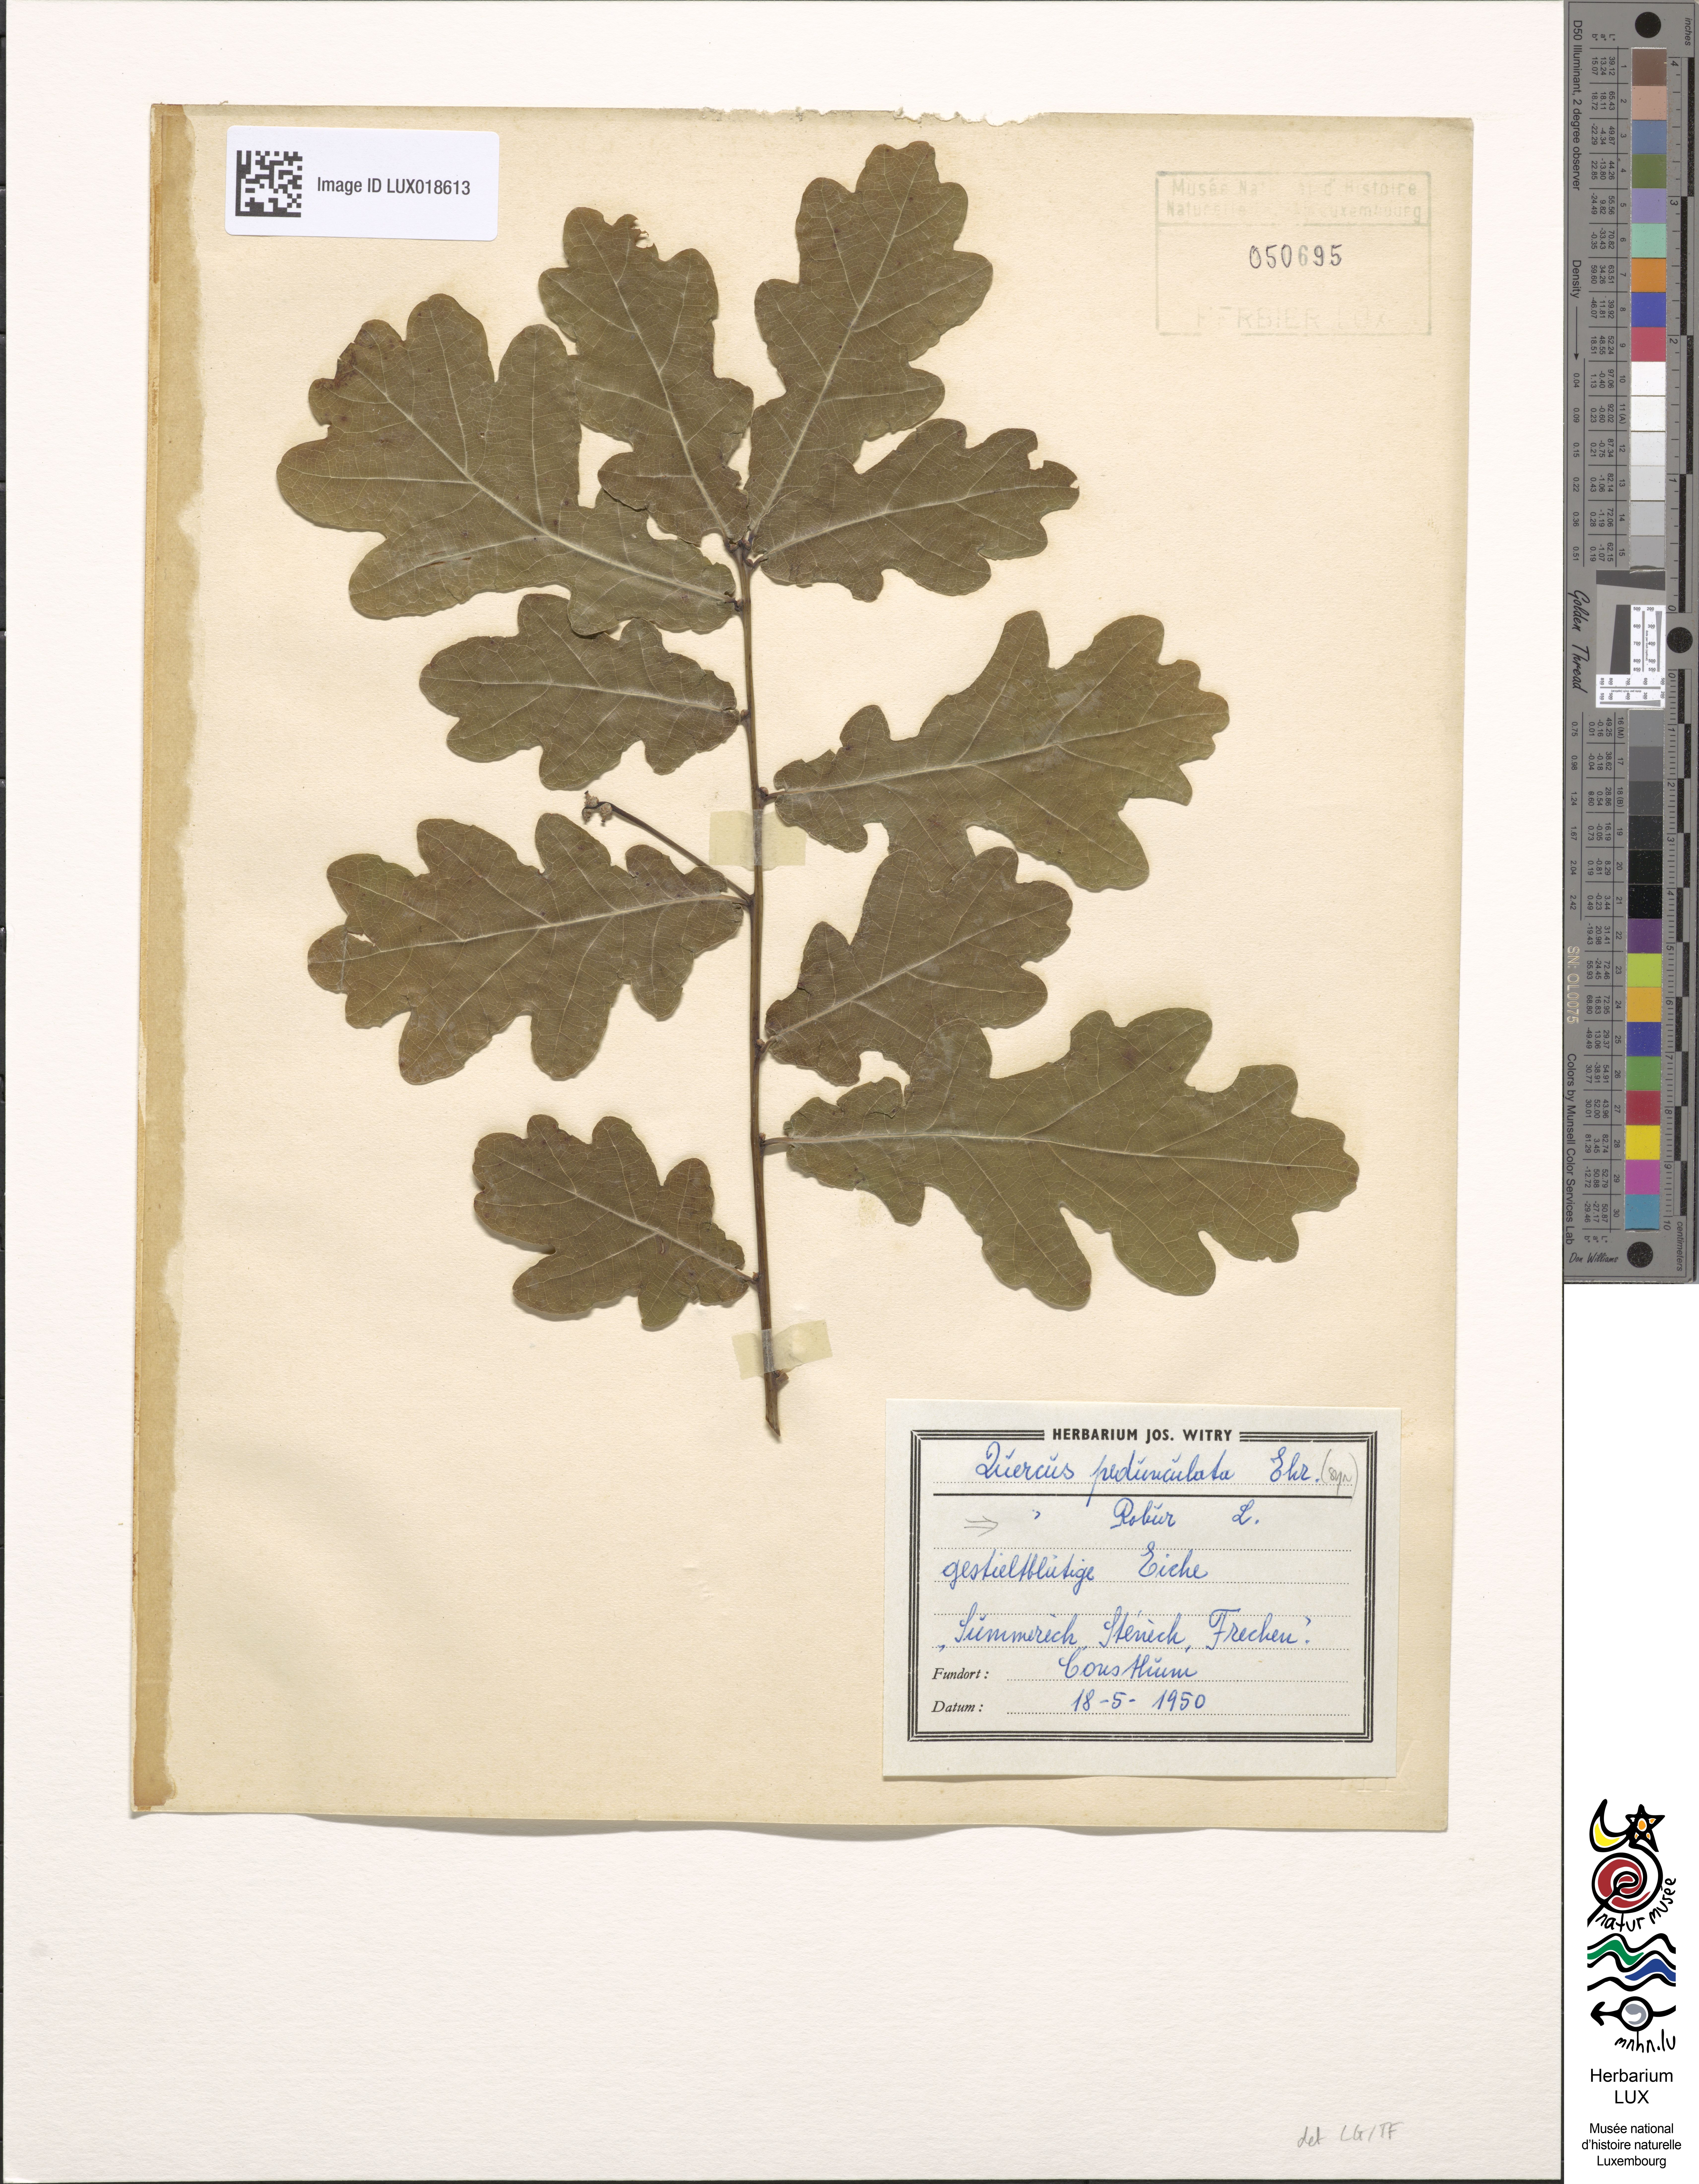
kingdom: Plantae
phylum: Tracheophyta
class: Magnoliopsida
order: Fagales
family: Fagaceae
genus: Quercus
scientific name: Quercus robur
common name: Pedunculate oak
